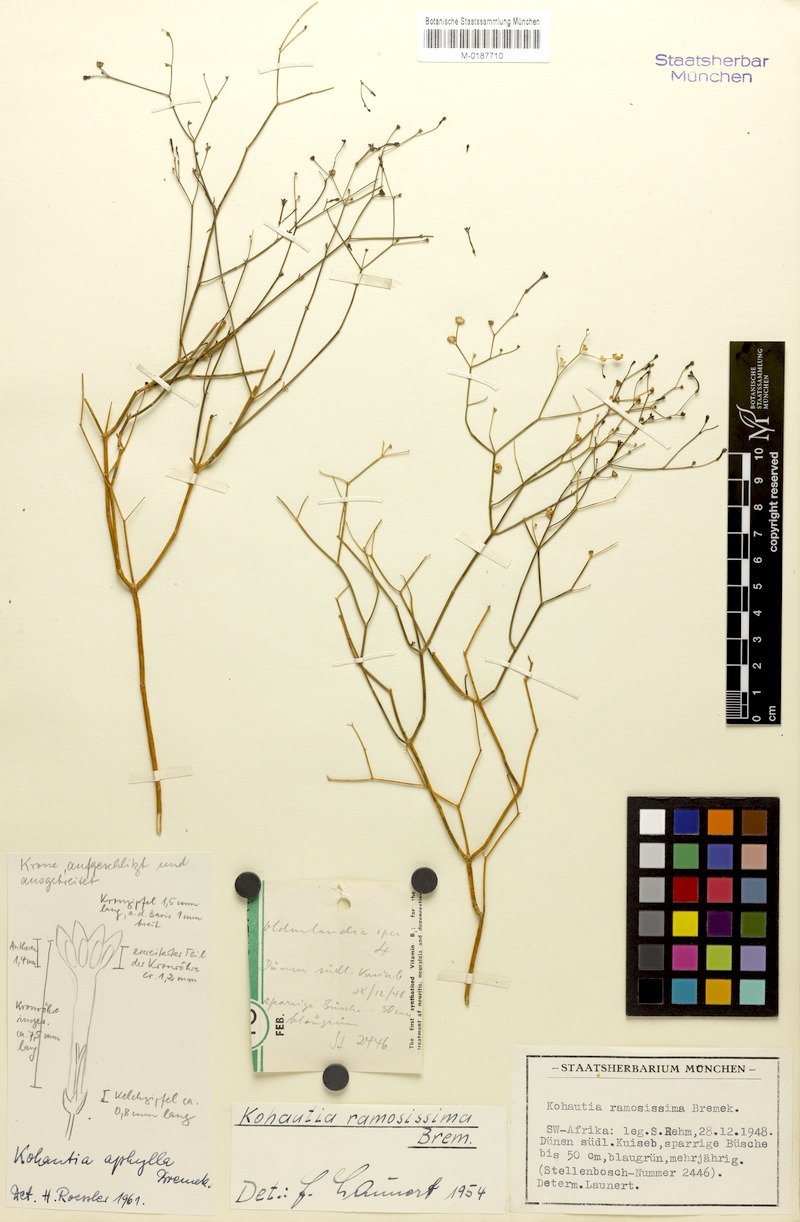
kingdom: Plantae
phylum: Tracheophyta
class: Magnoliopsida
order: Gentianales
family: Rubiaceae
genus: Kohautia
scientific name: Kohautia ramosissima
